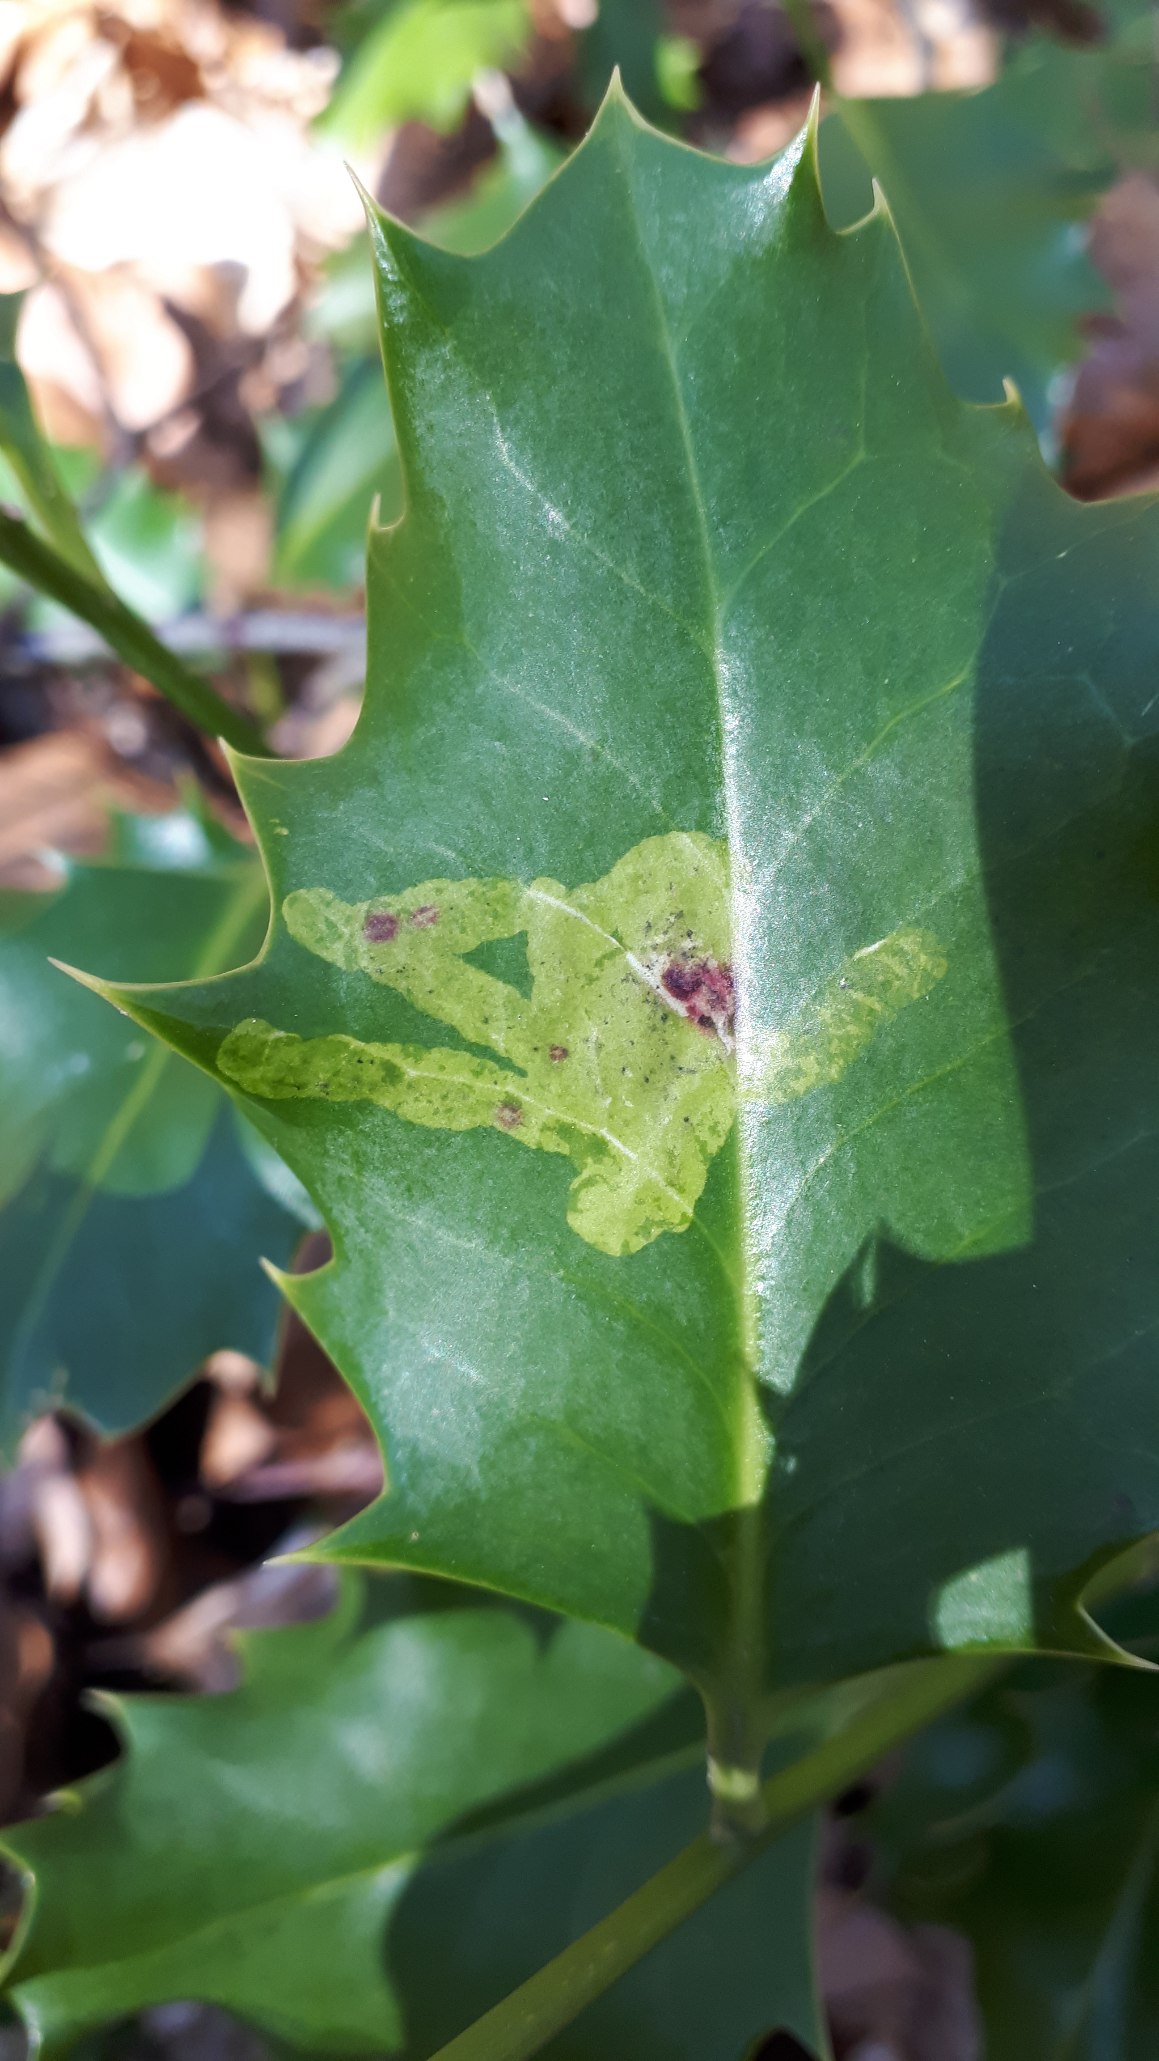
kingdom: Animalia
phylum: Arthropoda
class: Insecta
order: Diptera
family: Agromyzidae
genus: Phytomyza
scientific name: Phytomyza ilicis
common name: Kristtornminérflue
